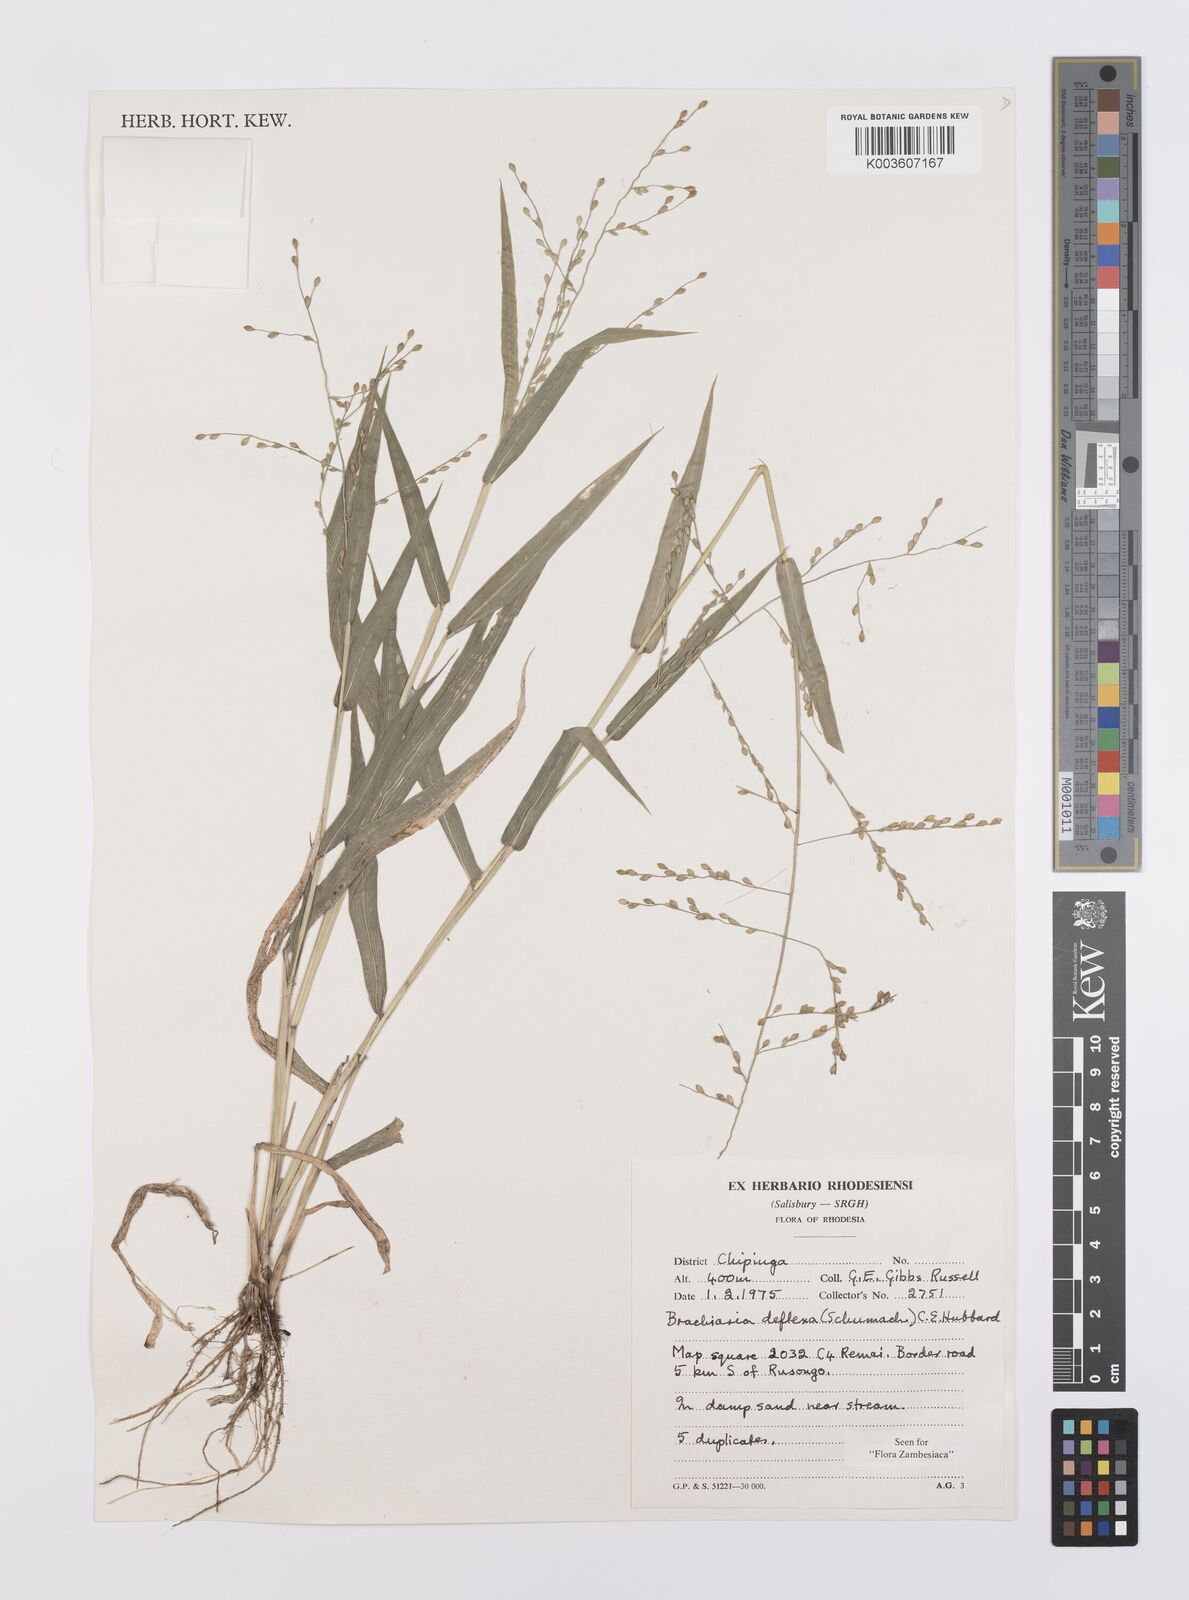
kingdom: Plantae
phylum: Tracheophyta
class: Liliopsida
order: Poales
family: Poaceae
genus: Urochloa
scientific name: Urochloa deflexa
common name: Guinea millet
